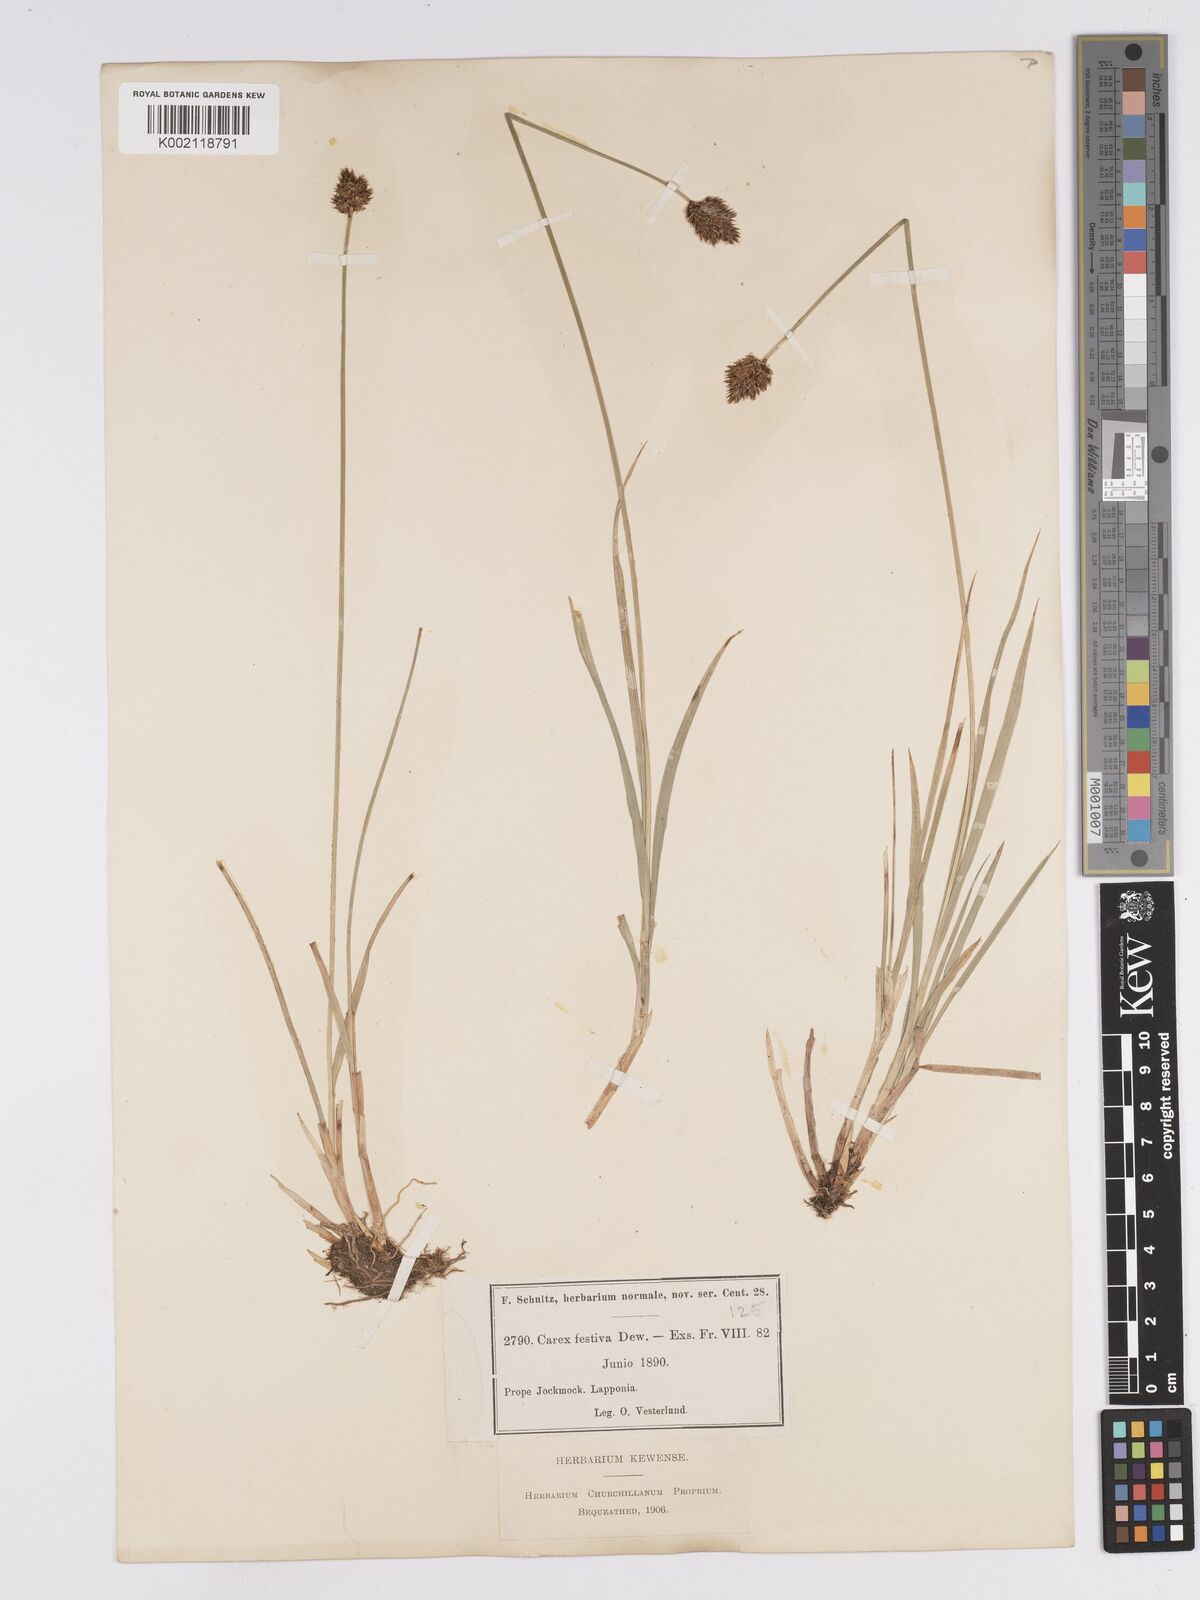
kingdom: Plantae
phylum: Tracheophyta
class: Liliopsida
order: Poales
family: Cyperaceae
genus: Carex
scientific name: Carex macloviana
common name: Falkland island sedge
